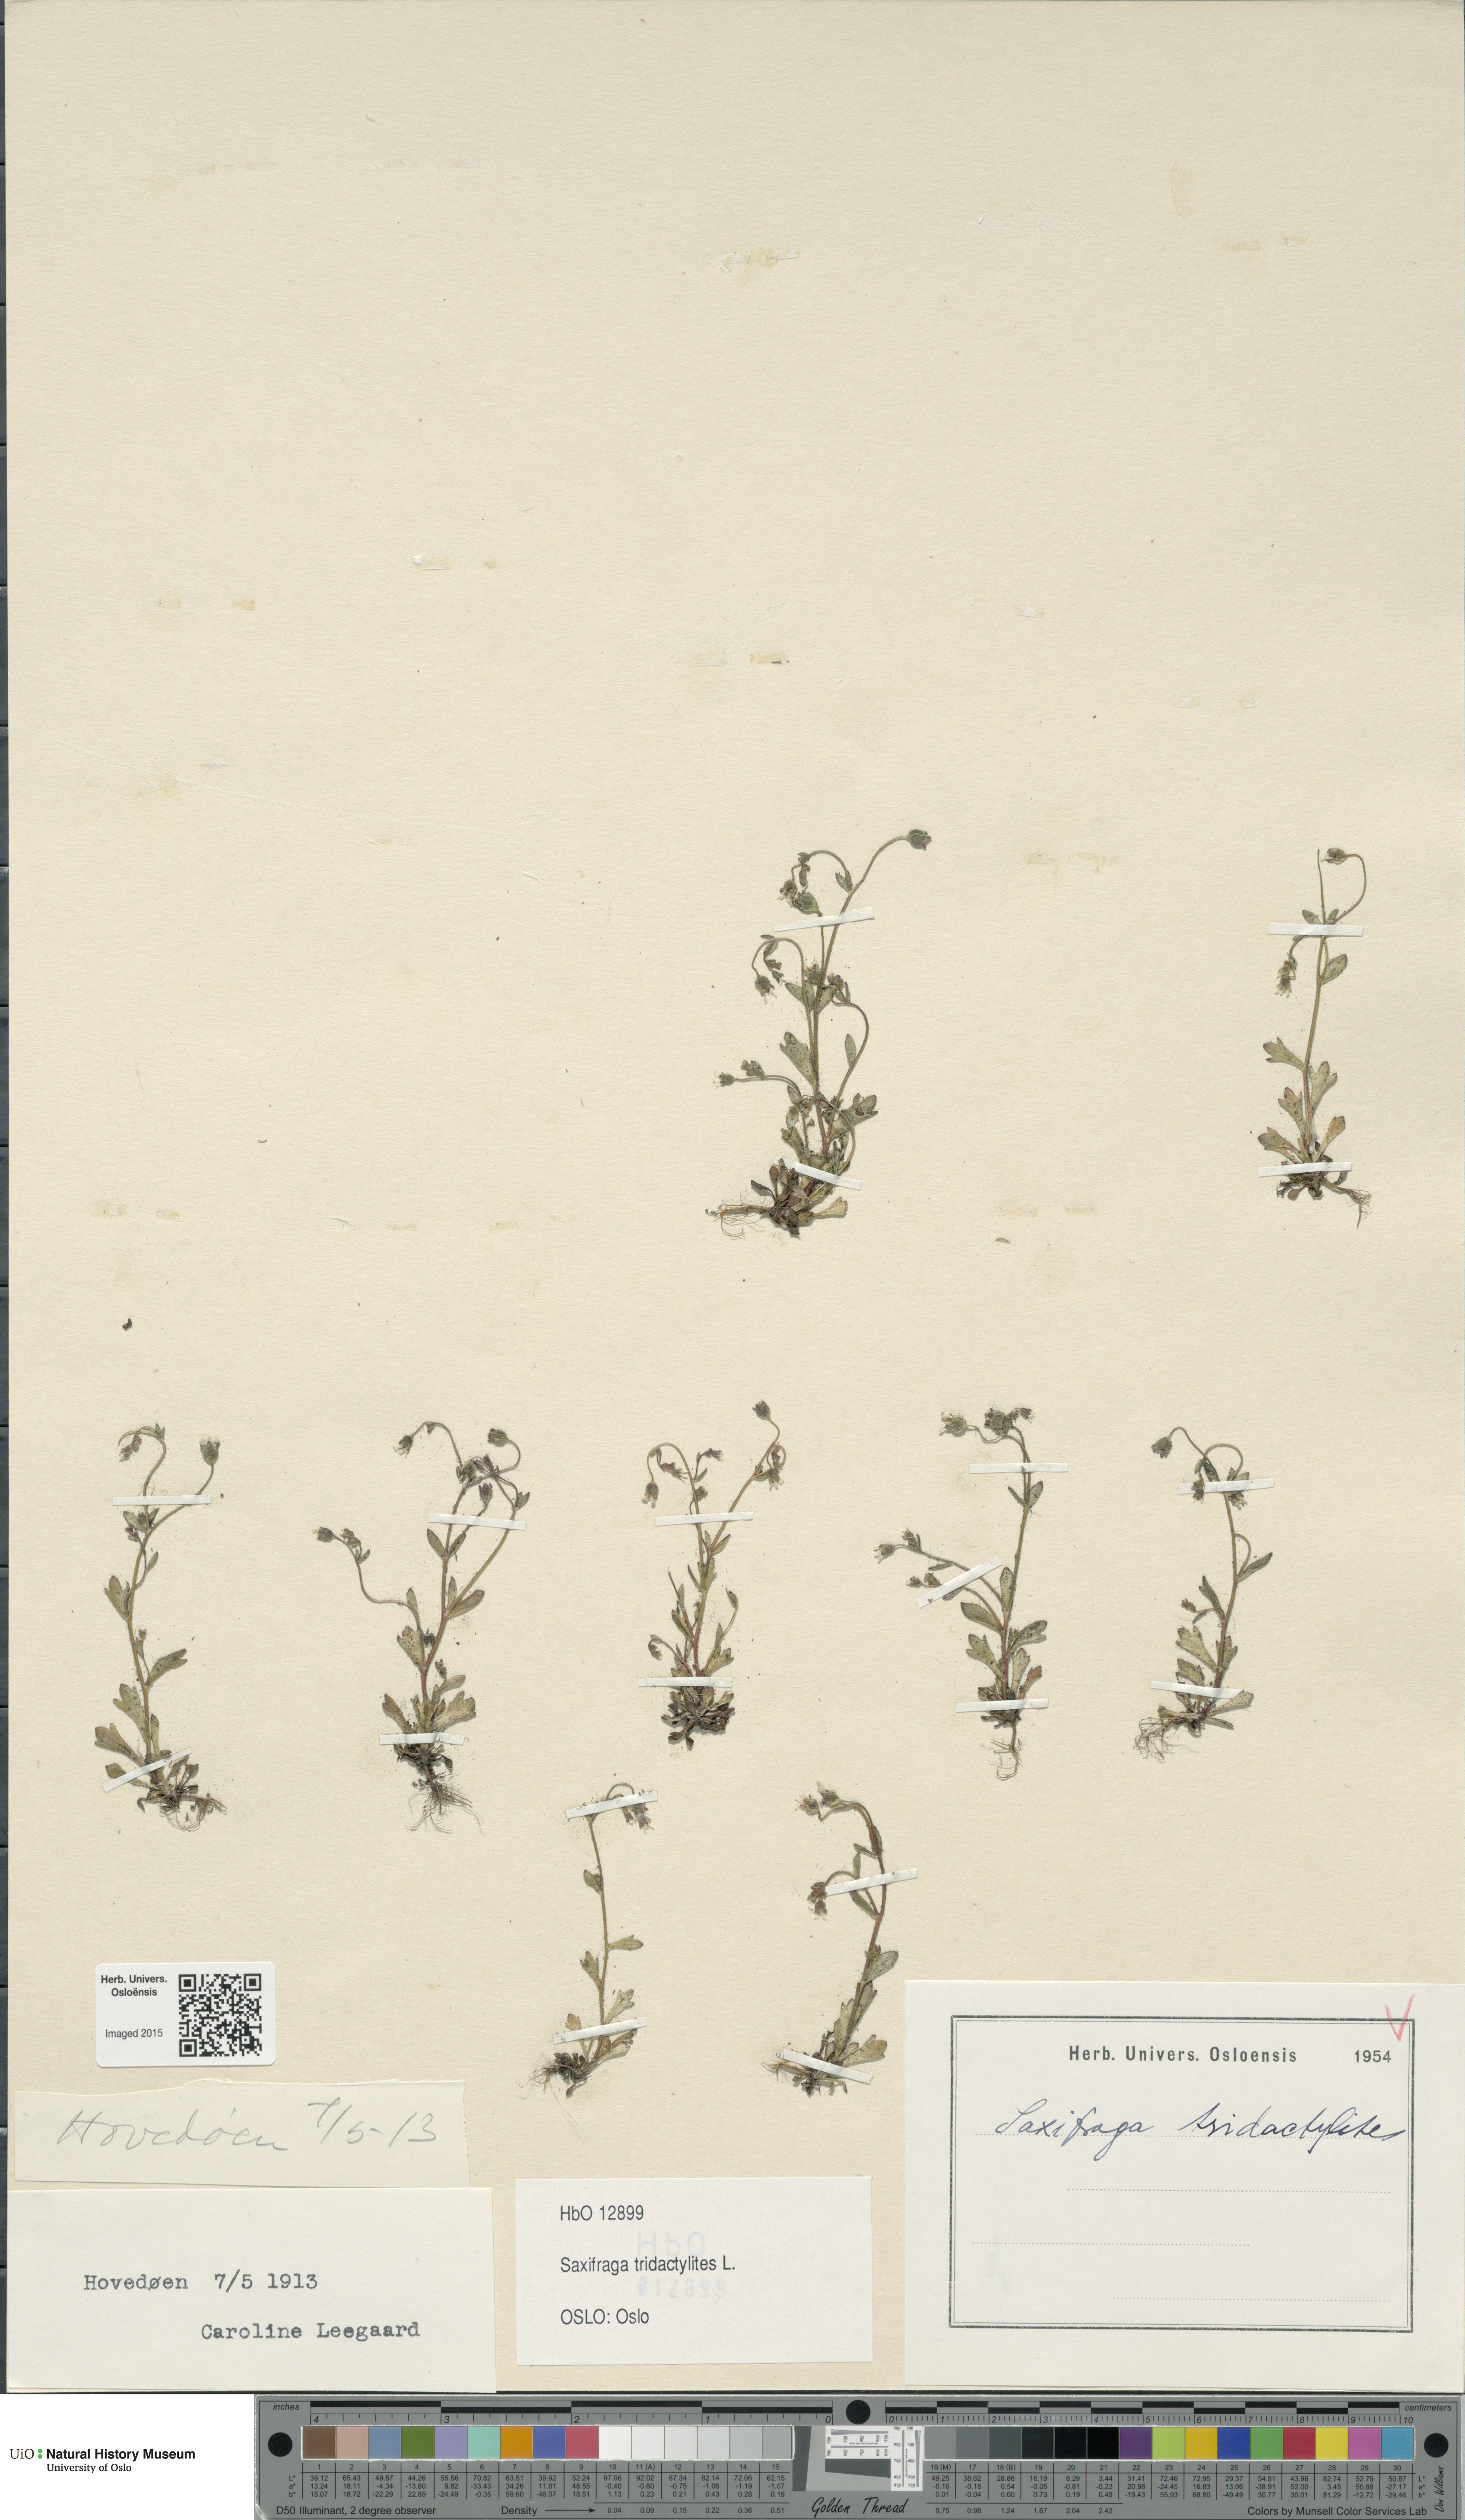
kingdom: Plantae
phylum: Tracheophyta
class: Magnoliopsida
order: Saxifragales
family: Saxifragaceae
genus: Saxifraga
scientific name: Saxifraga tridactylites
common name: Rue-leaved saxifrage
